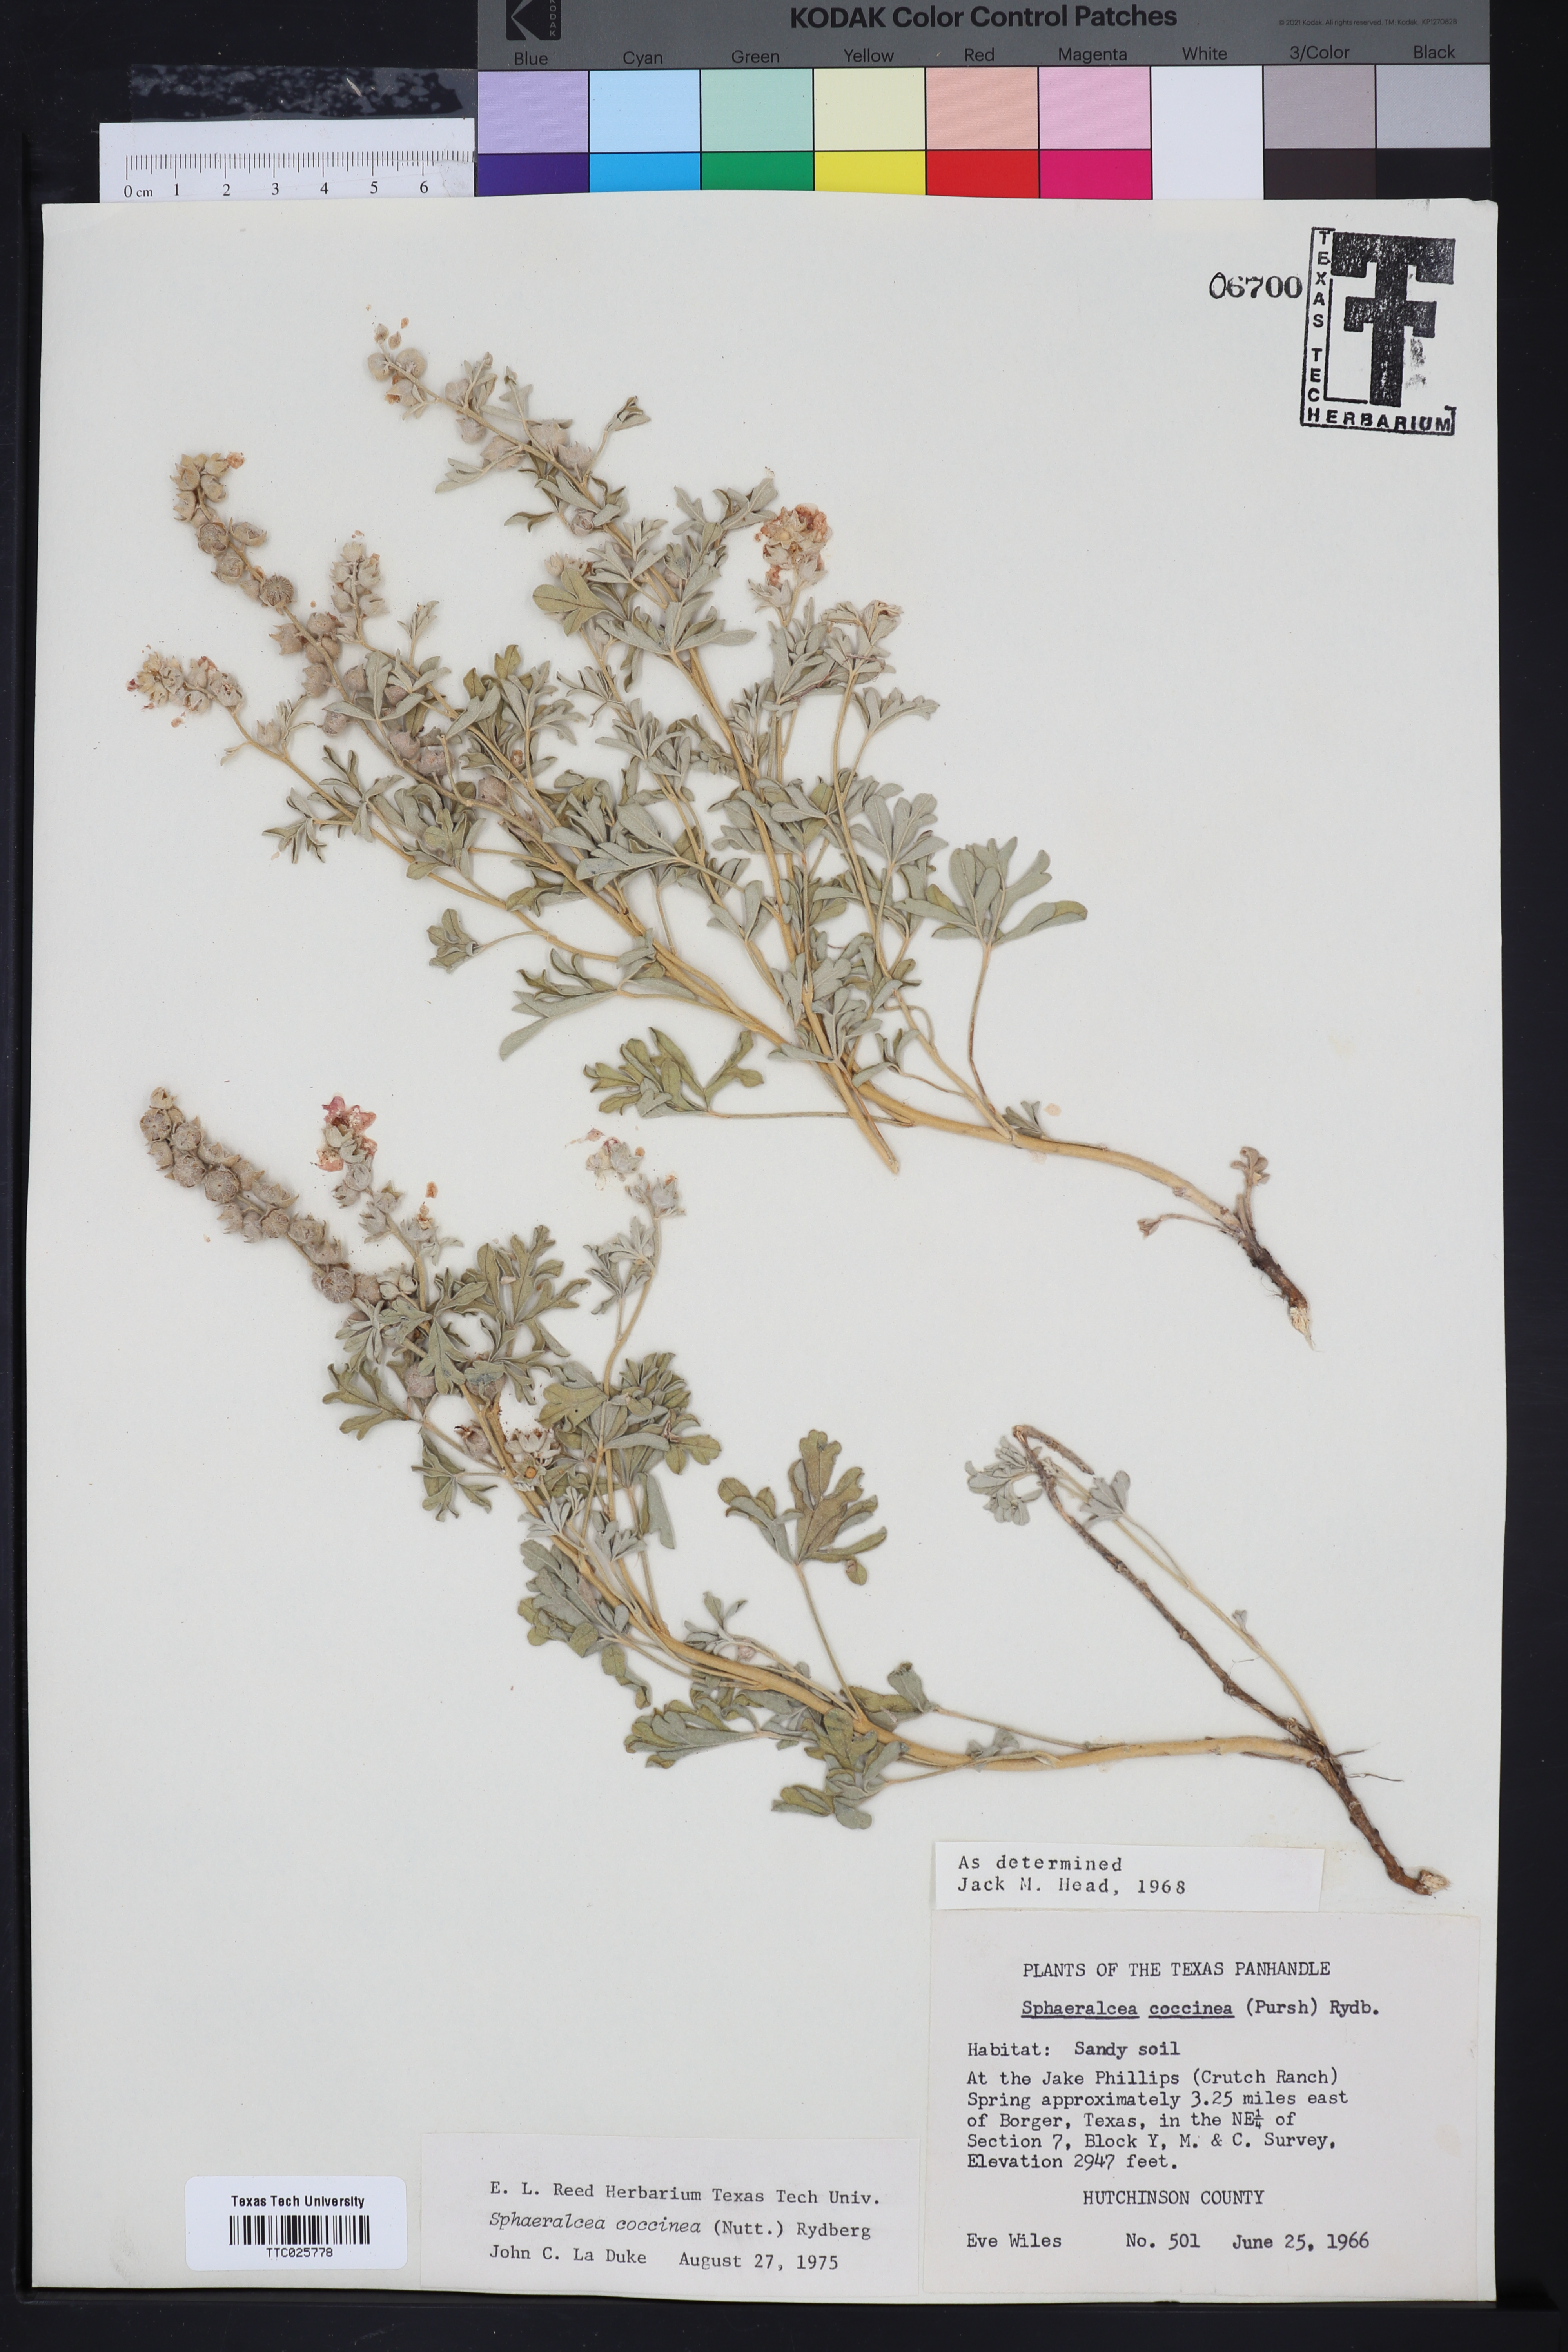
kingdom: Plantae
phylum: Tracheophyta
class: Magnoliopsida
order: Malvales
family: Malvaceae
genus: Sphaeralcea
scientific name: Sphaeralcea coccinea
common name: Moss-rose
